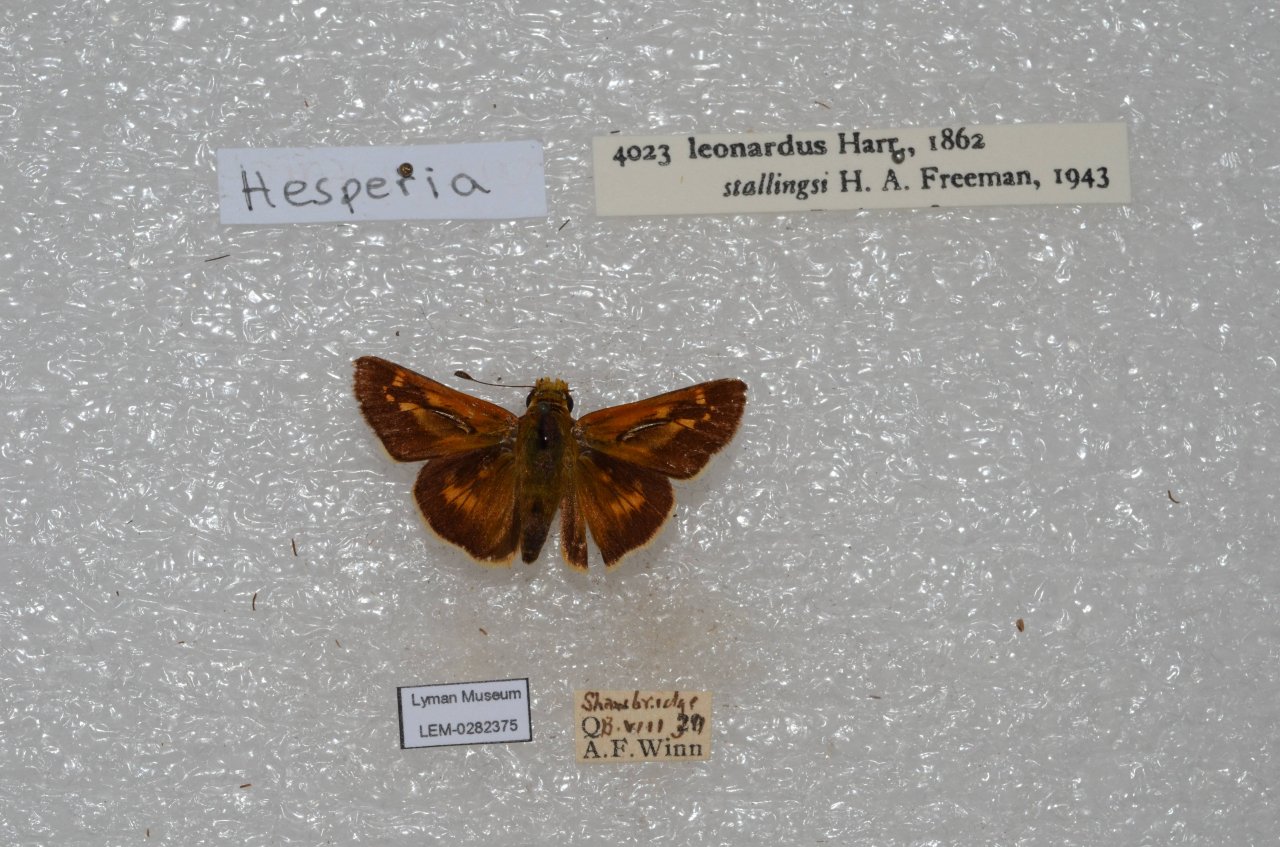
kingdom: Animalia
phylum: Arthropoda
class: Insecta
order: Lepidoptera
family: Hesperiidae
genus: Hesperia
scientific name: Hesperia leonardus
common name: Leonard's Skipper
